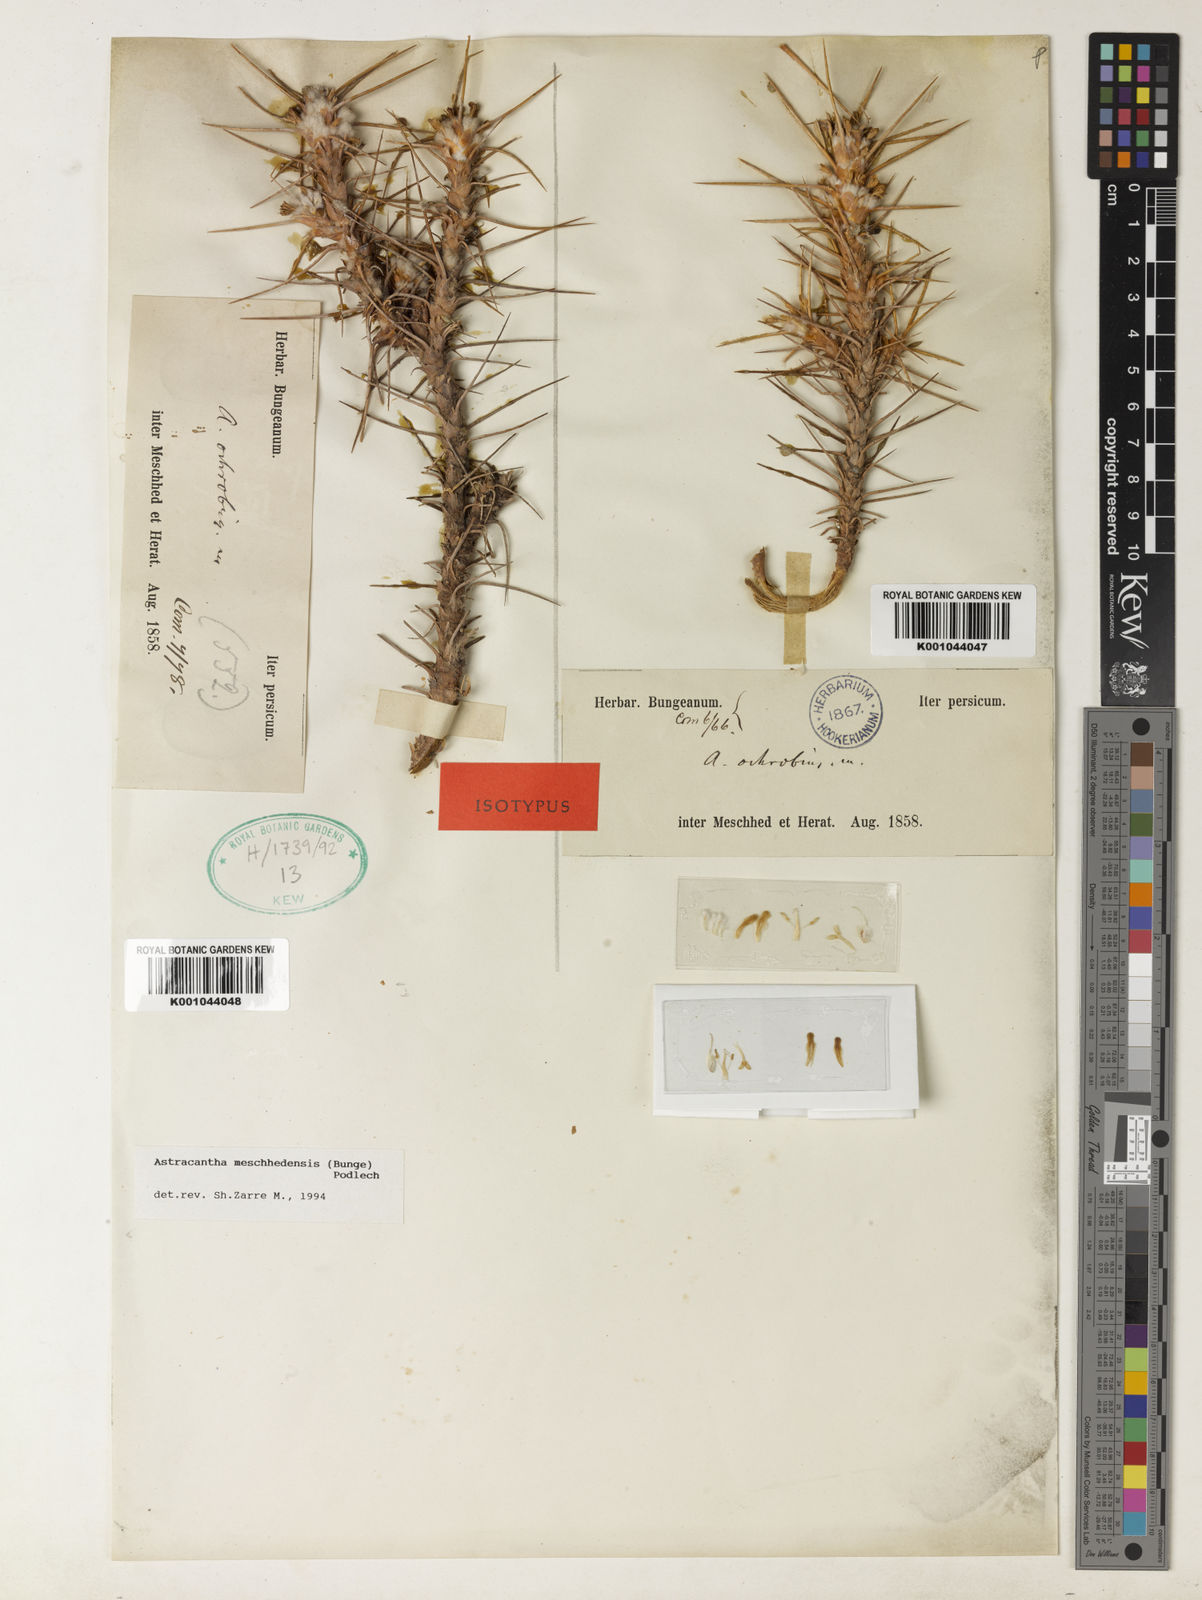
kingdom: Plantae
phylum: Tracheophyta
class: Magnoliopsida
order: Fabales
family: Fabaceae
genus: Astragalus
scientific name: Astragalus verus
